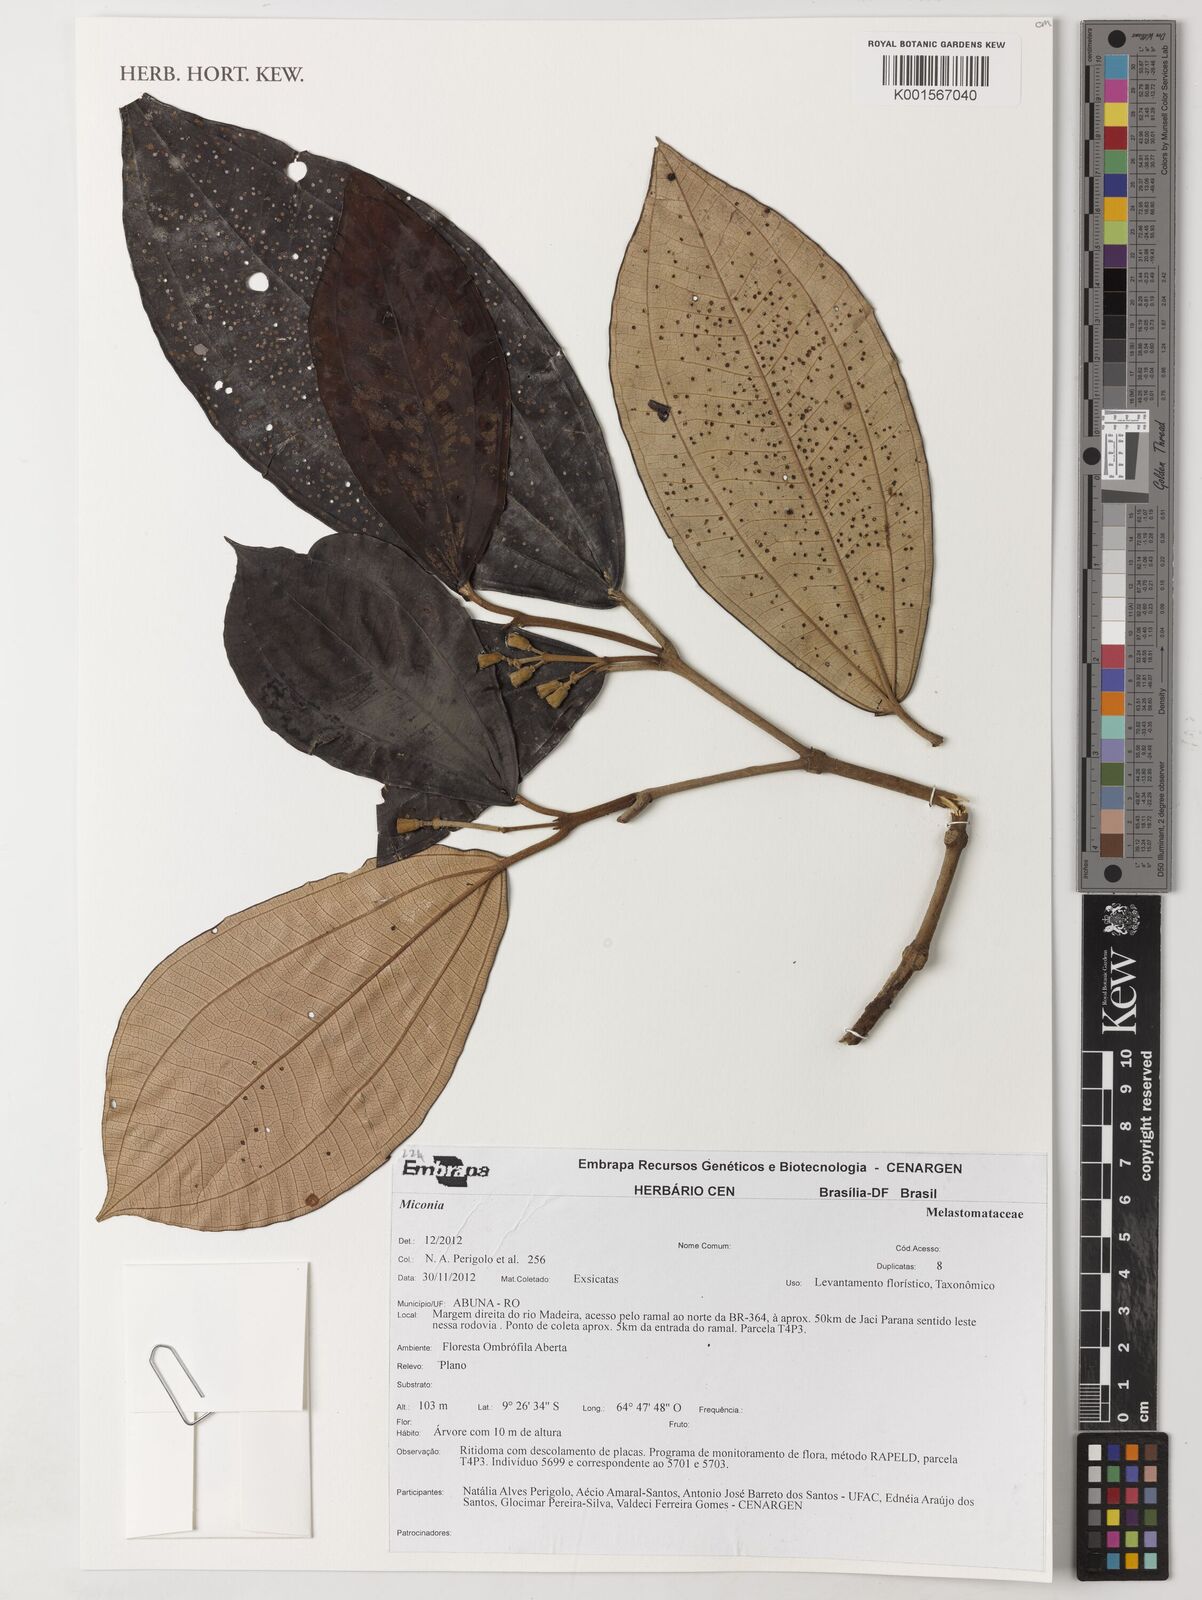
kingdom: Plantae
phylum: Tracheophyta
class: Magnoliopsida
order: Myrtales
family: Melastomataceae
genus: Miconia
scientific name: Miconia
